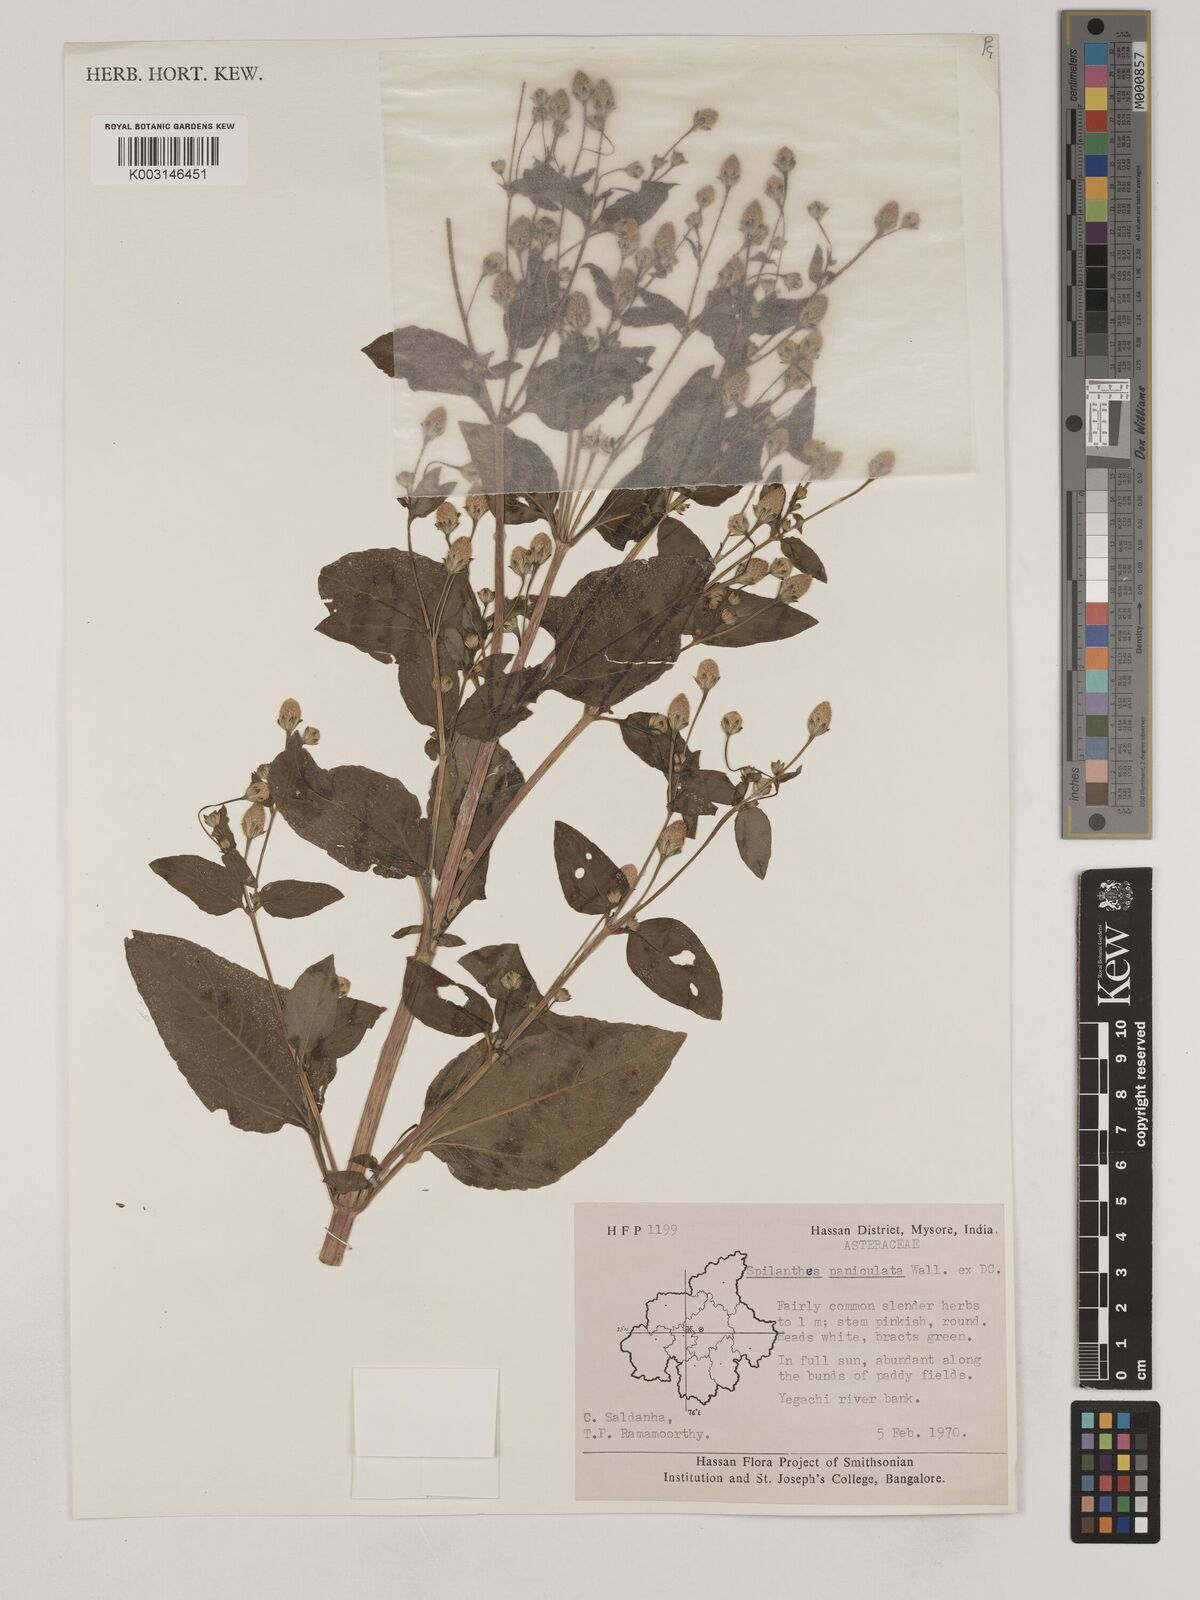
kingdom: Plantae
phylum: Tracheophyta
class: Magnoliopsida
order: Asterales
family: Asteraceae
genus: Acmella
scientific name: Acmella paniculata
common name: Panicled spot flower
